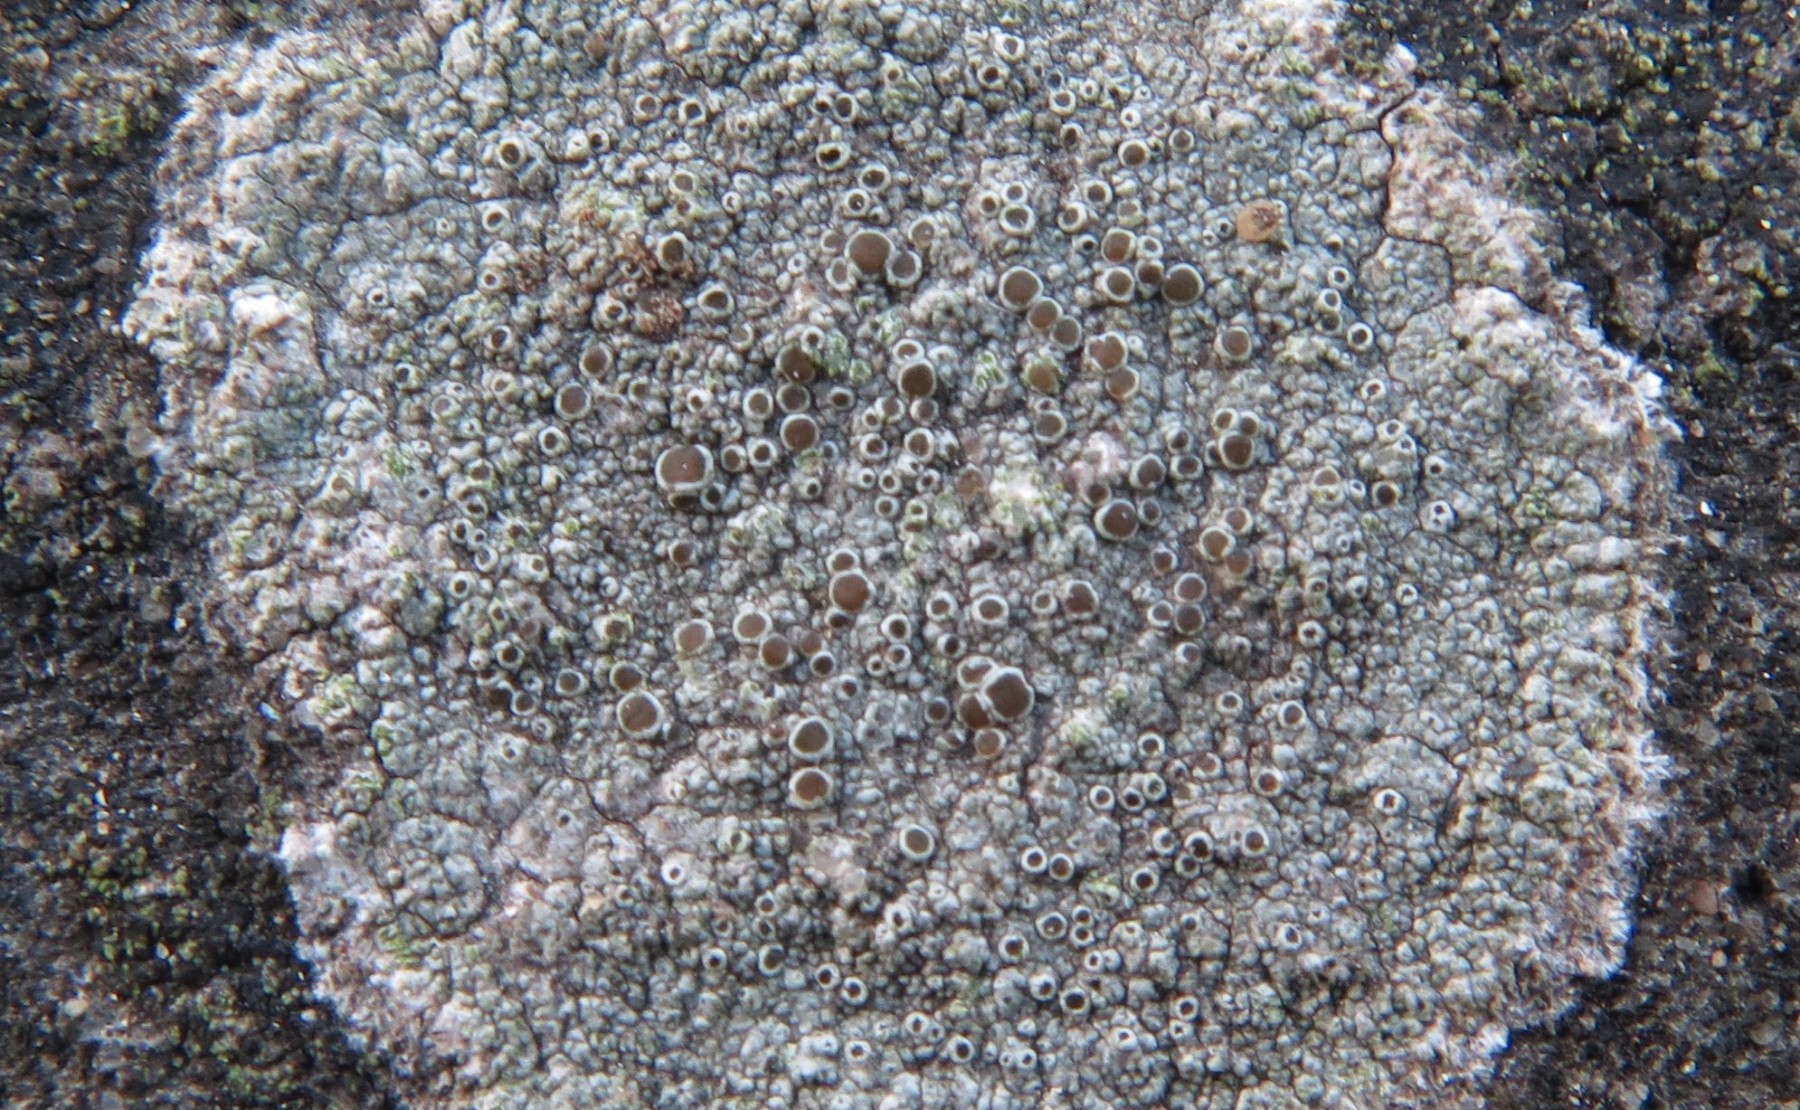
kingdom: Fungi
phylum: Ascomycota
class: Lecanoromycetes
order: Lecanorales
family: Lecanoraceae
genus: Lecanora
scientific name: Lecanora campestris
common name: mur-kantskivelav
